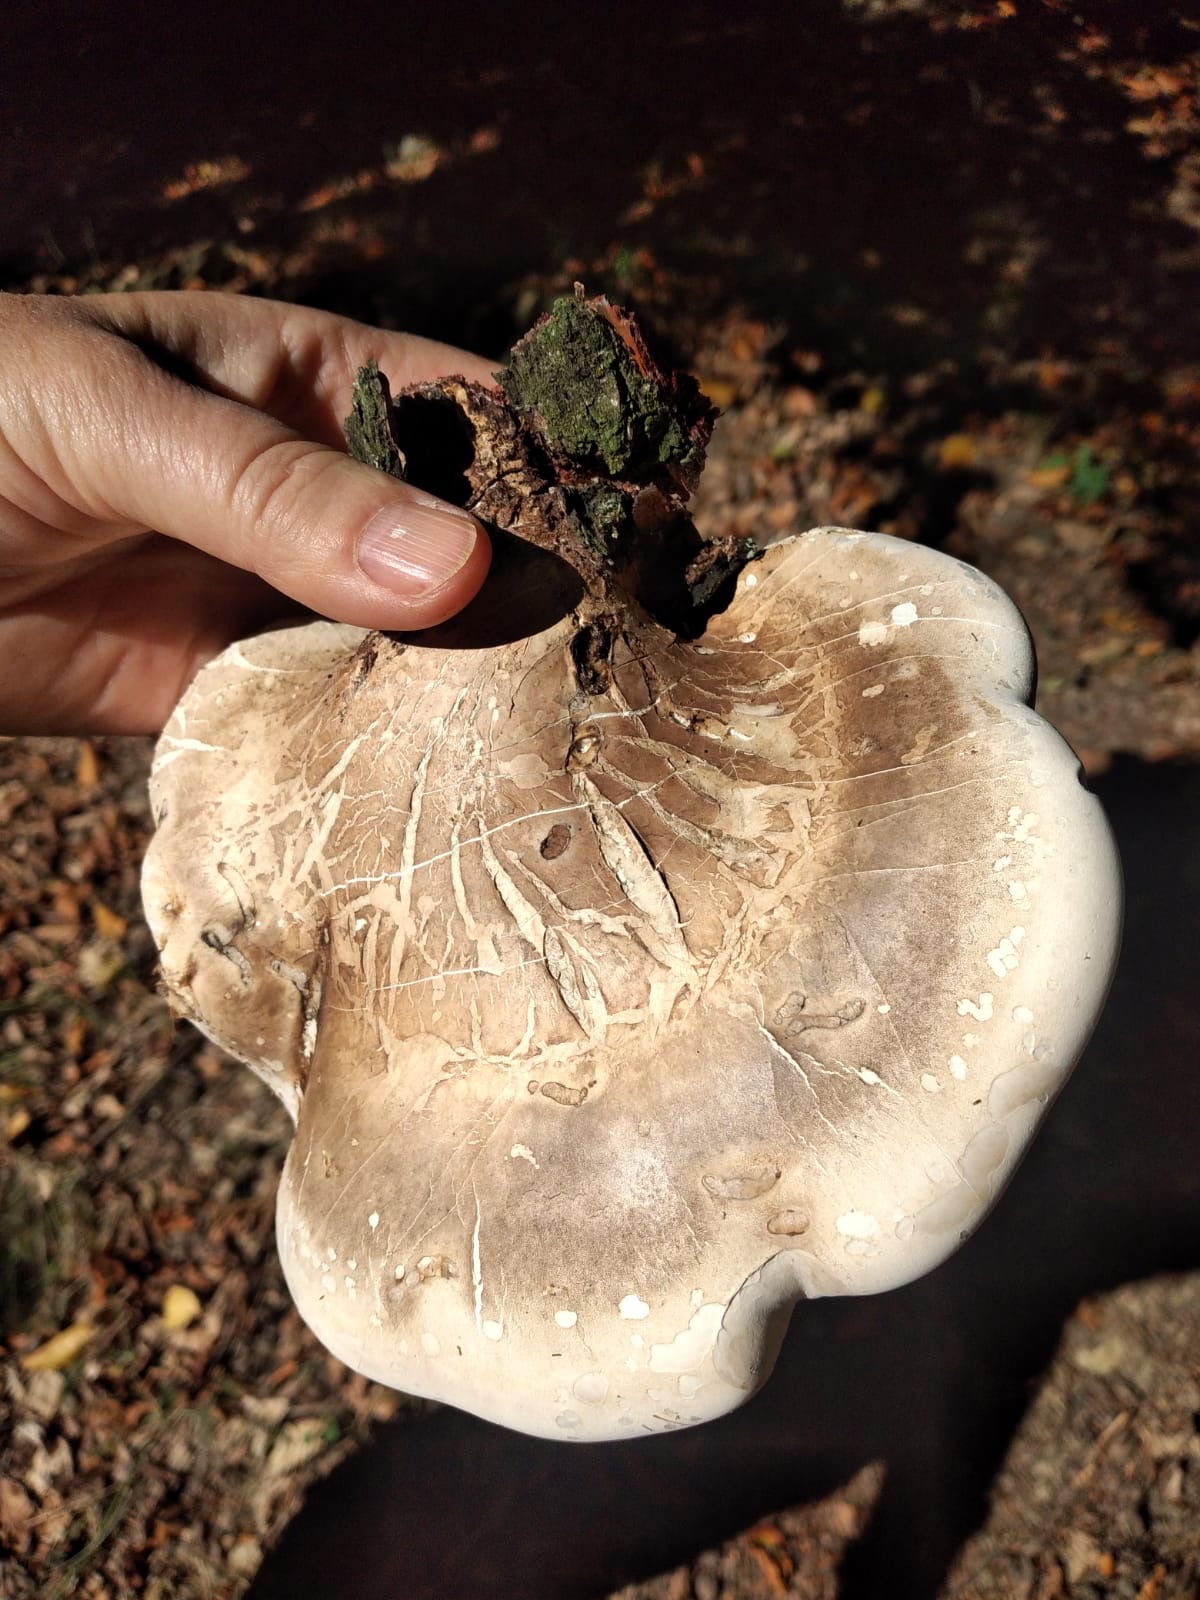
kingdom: Fungi
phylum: Basidiomycota
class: Agaricomycetes
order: Polyporales
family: Fomitopsidaceae
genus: Fomitopsis
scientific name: Fomitopsis betulina
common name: birkeporesvamp
